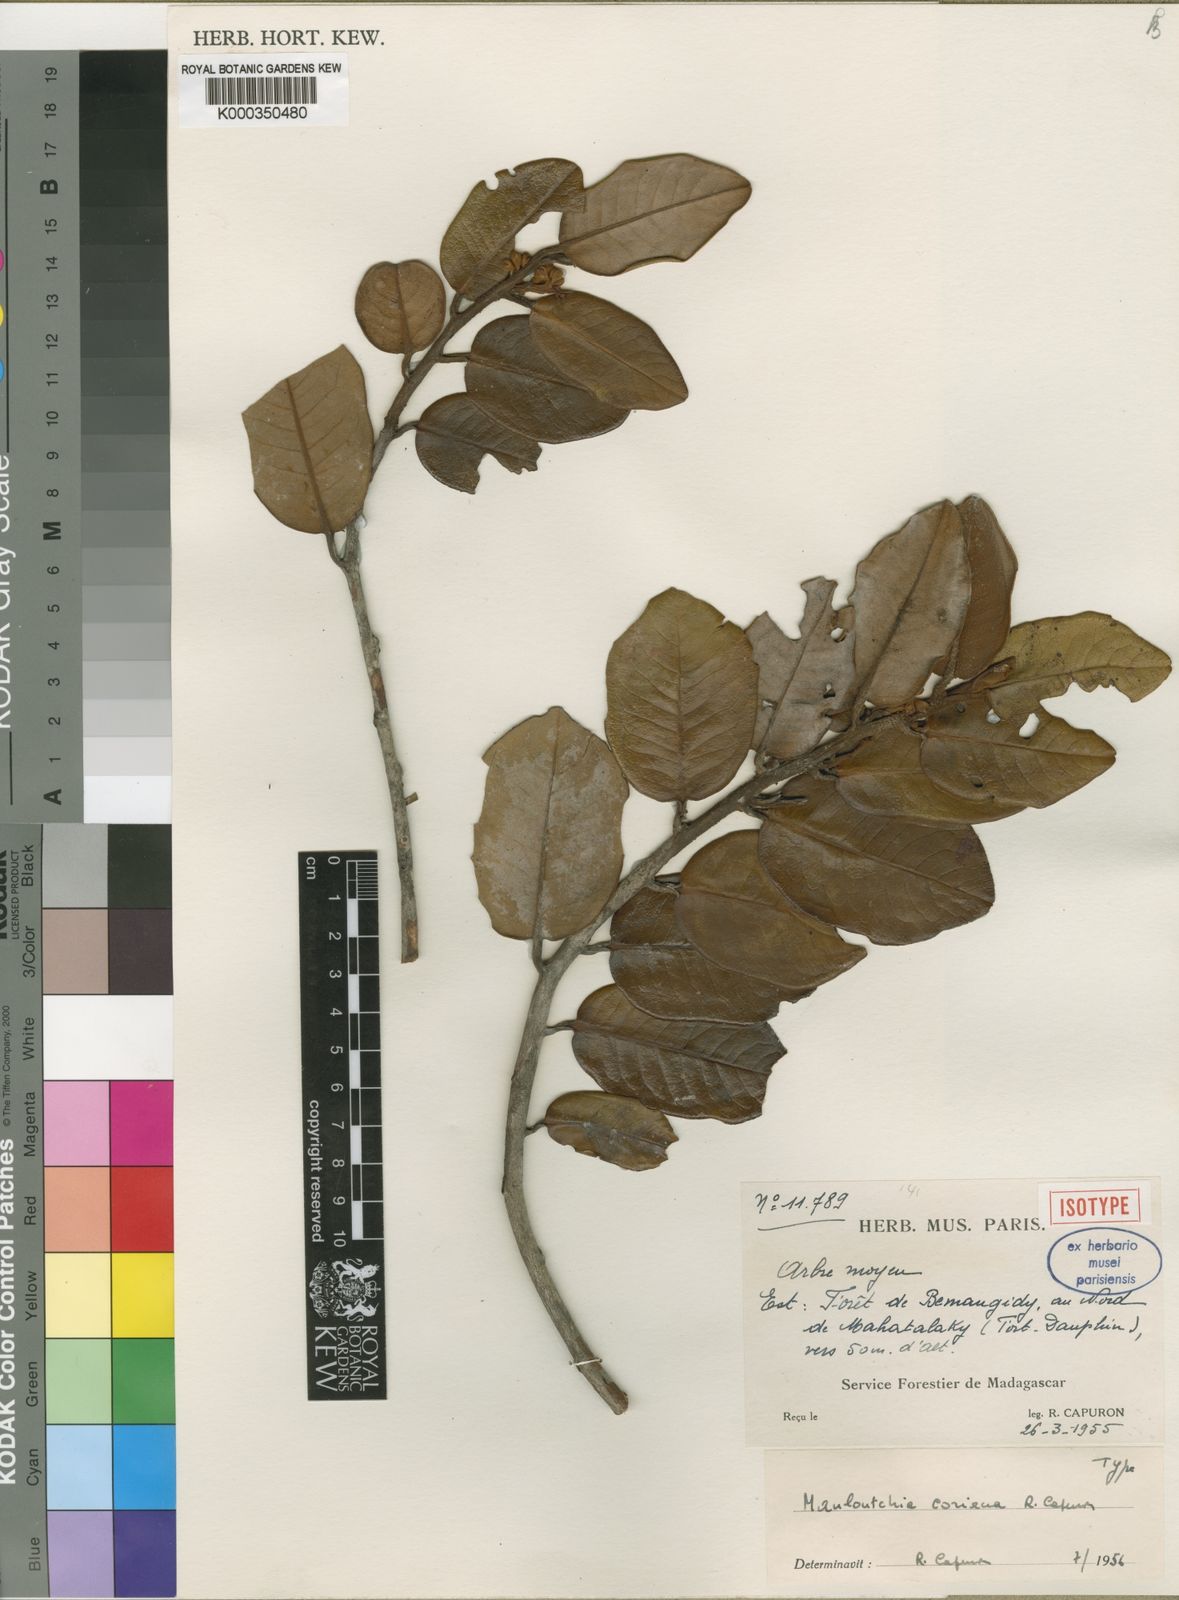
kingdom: Plantae
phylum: Tracheophyta
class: Magnoliopsida
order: Magnoliales
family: Myristicaceae
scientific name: Myristicaceae
